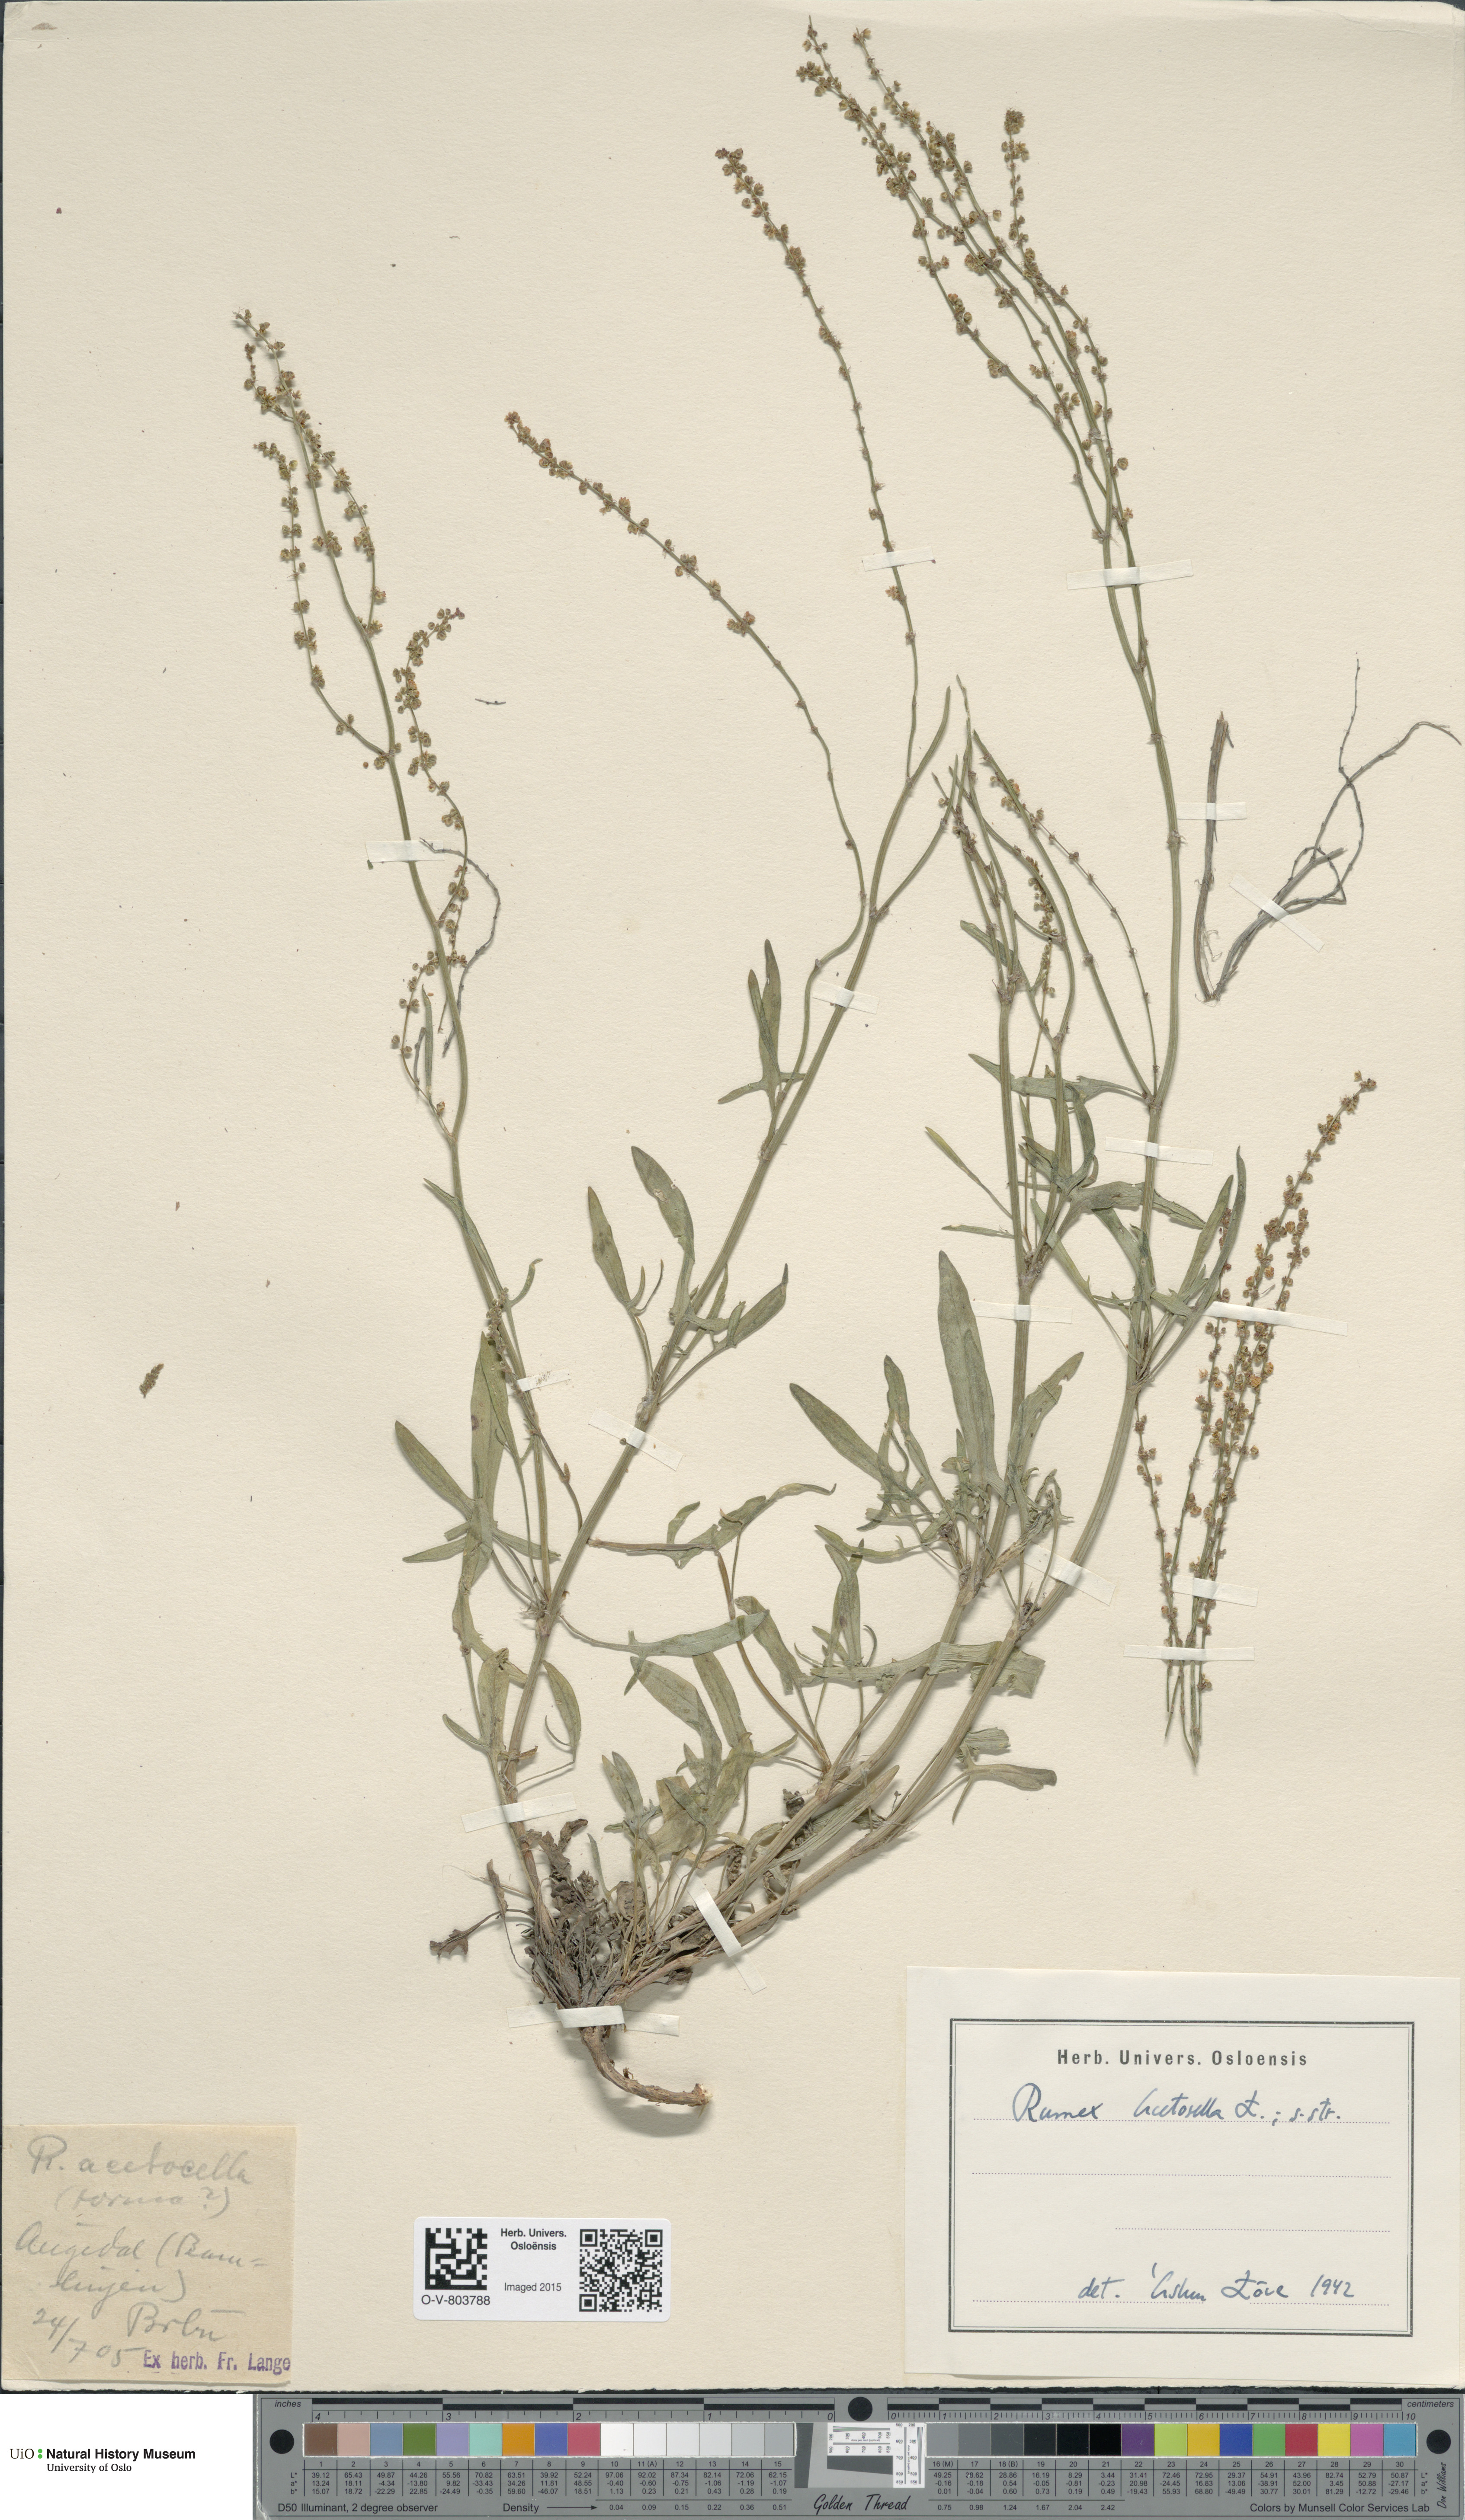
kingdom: Plantae
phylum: Tracheophyta
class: Magnoliopsida
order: Caryophyllales
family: Polygonaceae
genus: Rumex
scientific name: Rumex acetosella
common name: Common sheep sorrel
